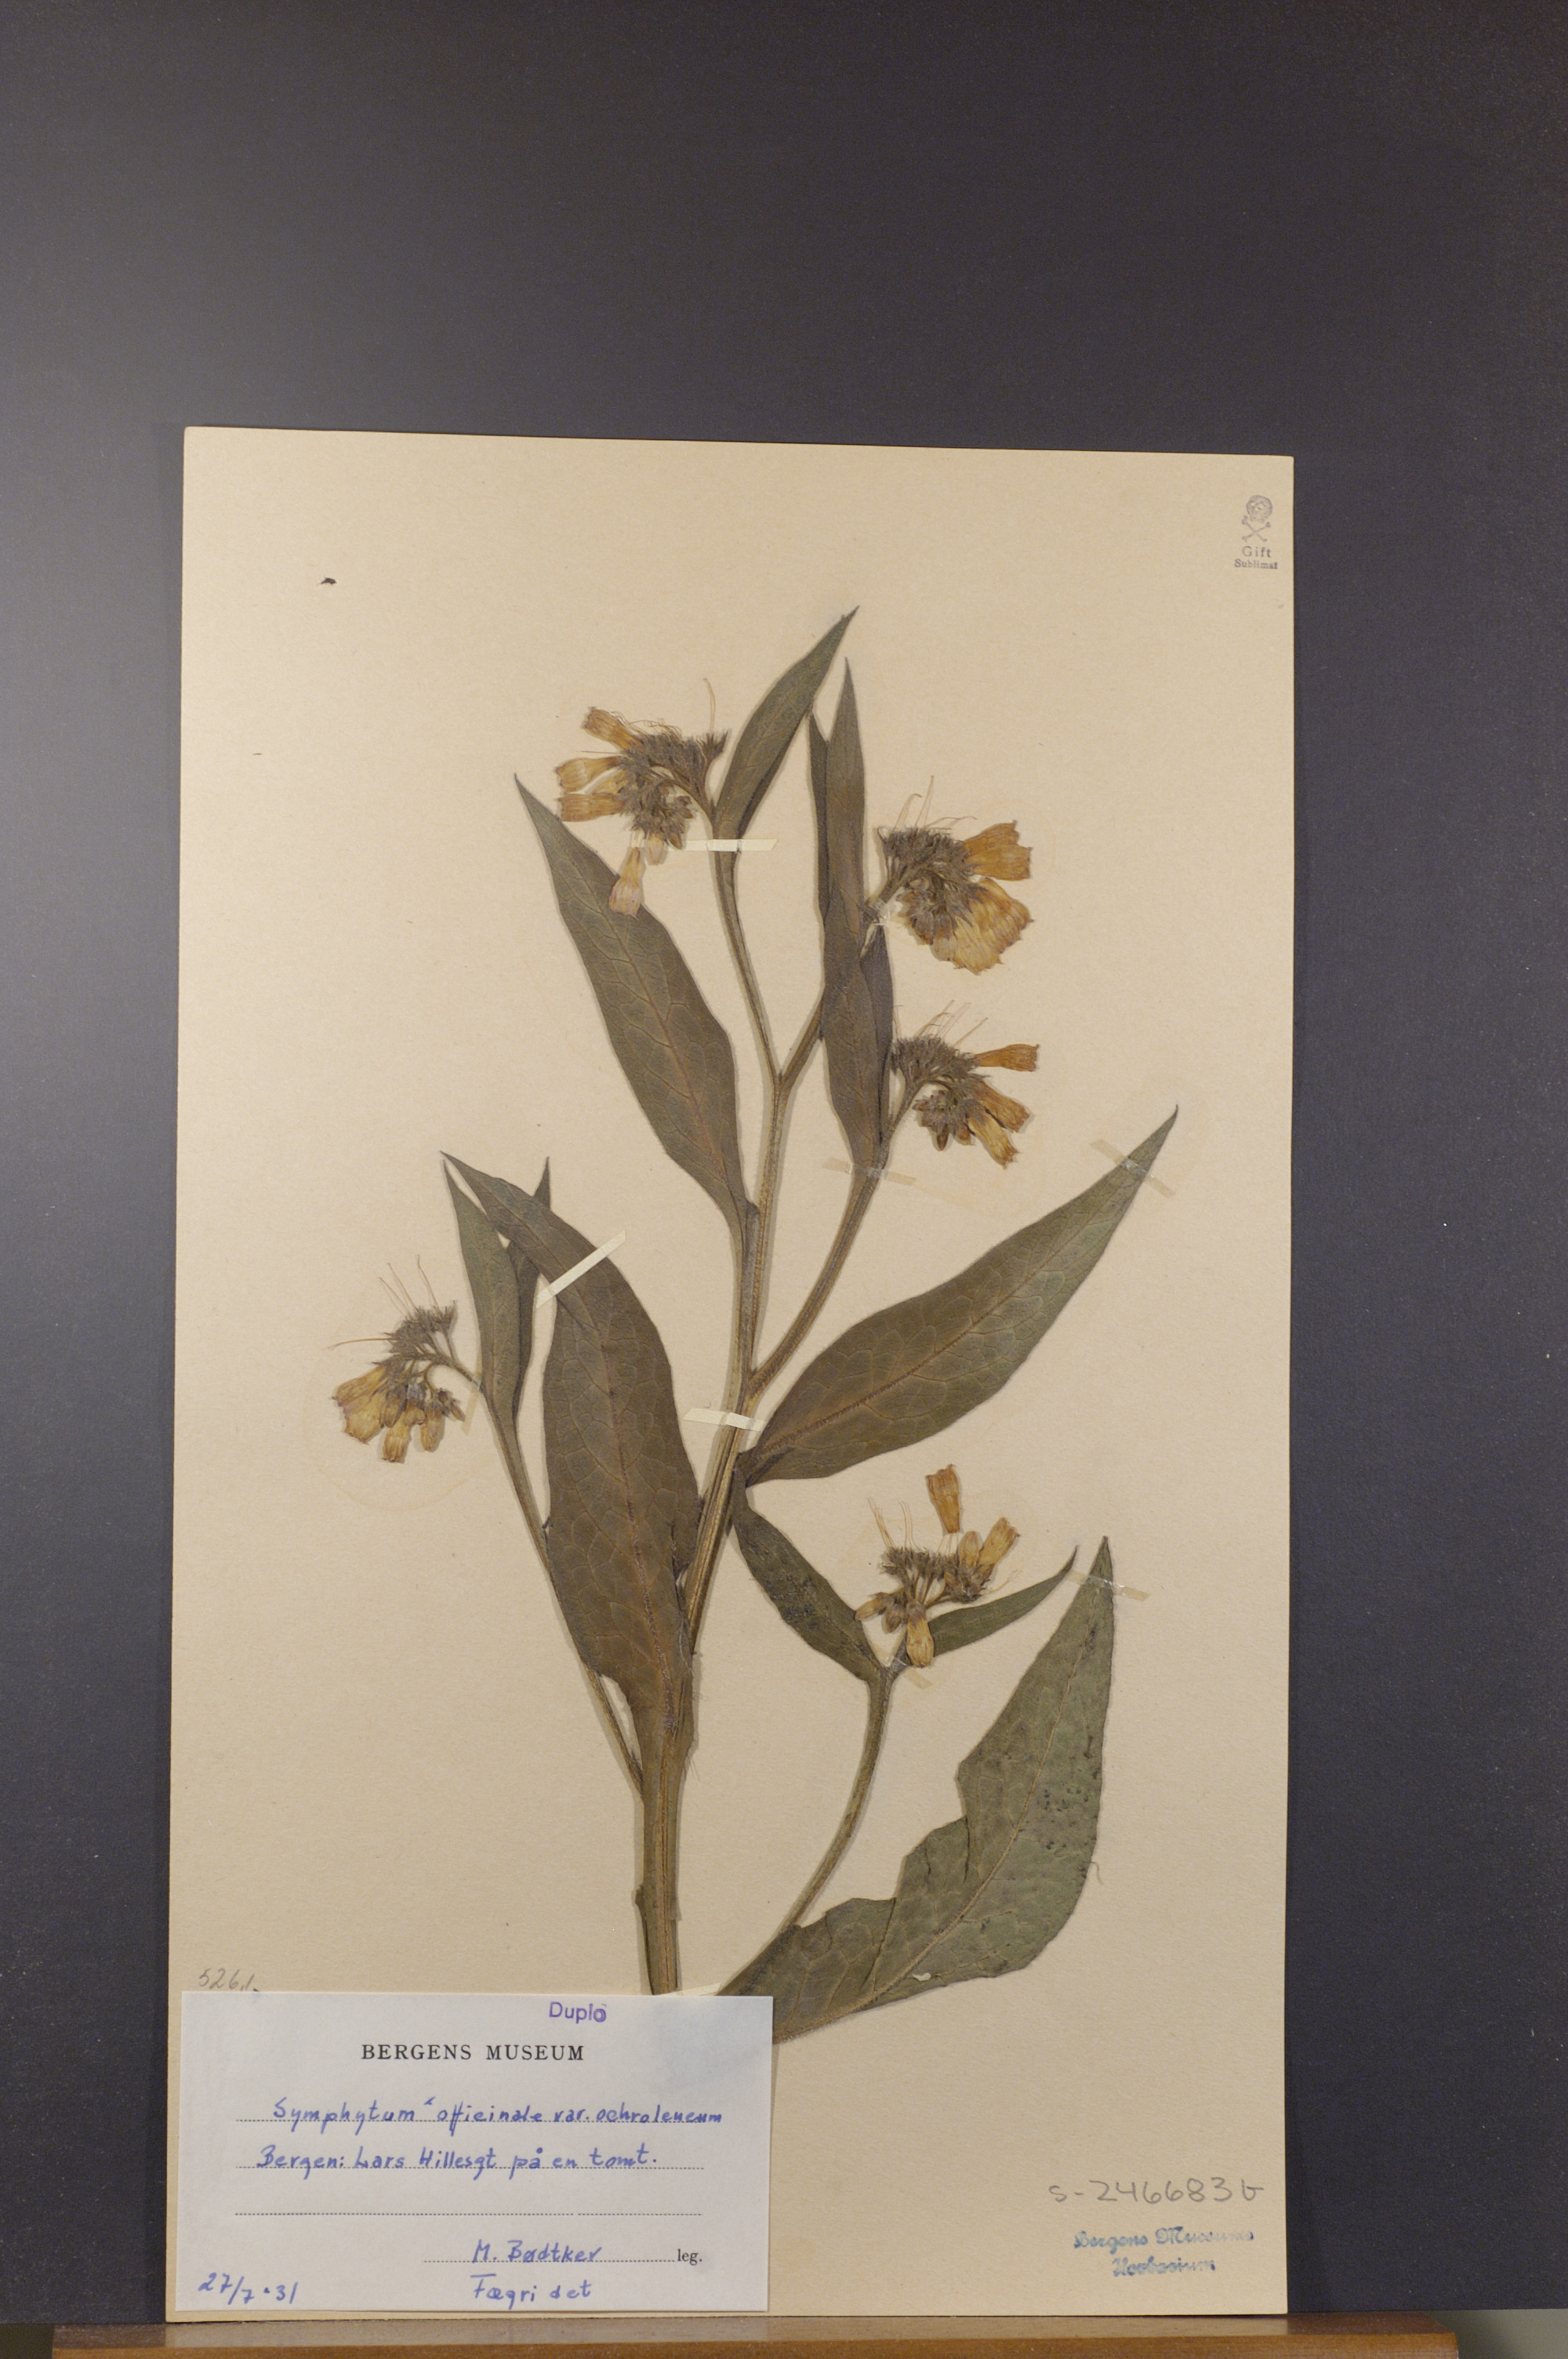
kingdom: Plantae
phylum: Tracheophyta
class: Magnoliopsida
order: Boraginales
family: Boraginaceae
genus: Symphytum
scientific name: Symphytum officinale
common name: Common comfrey
